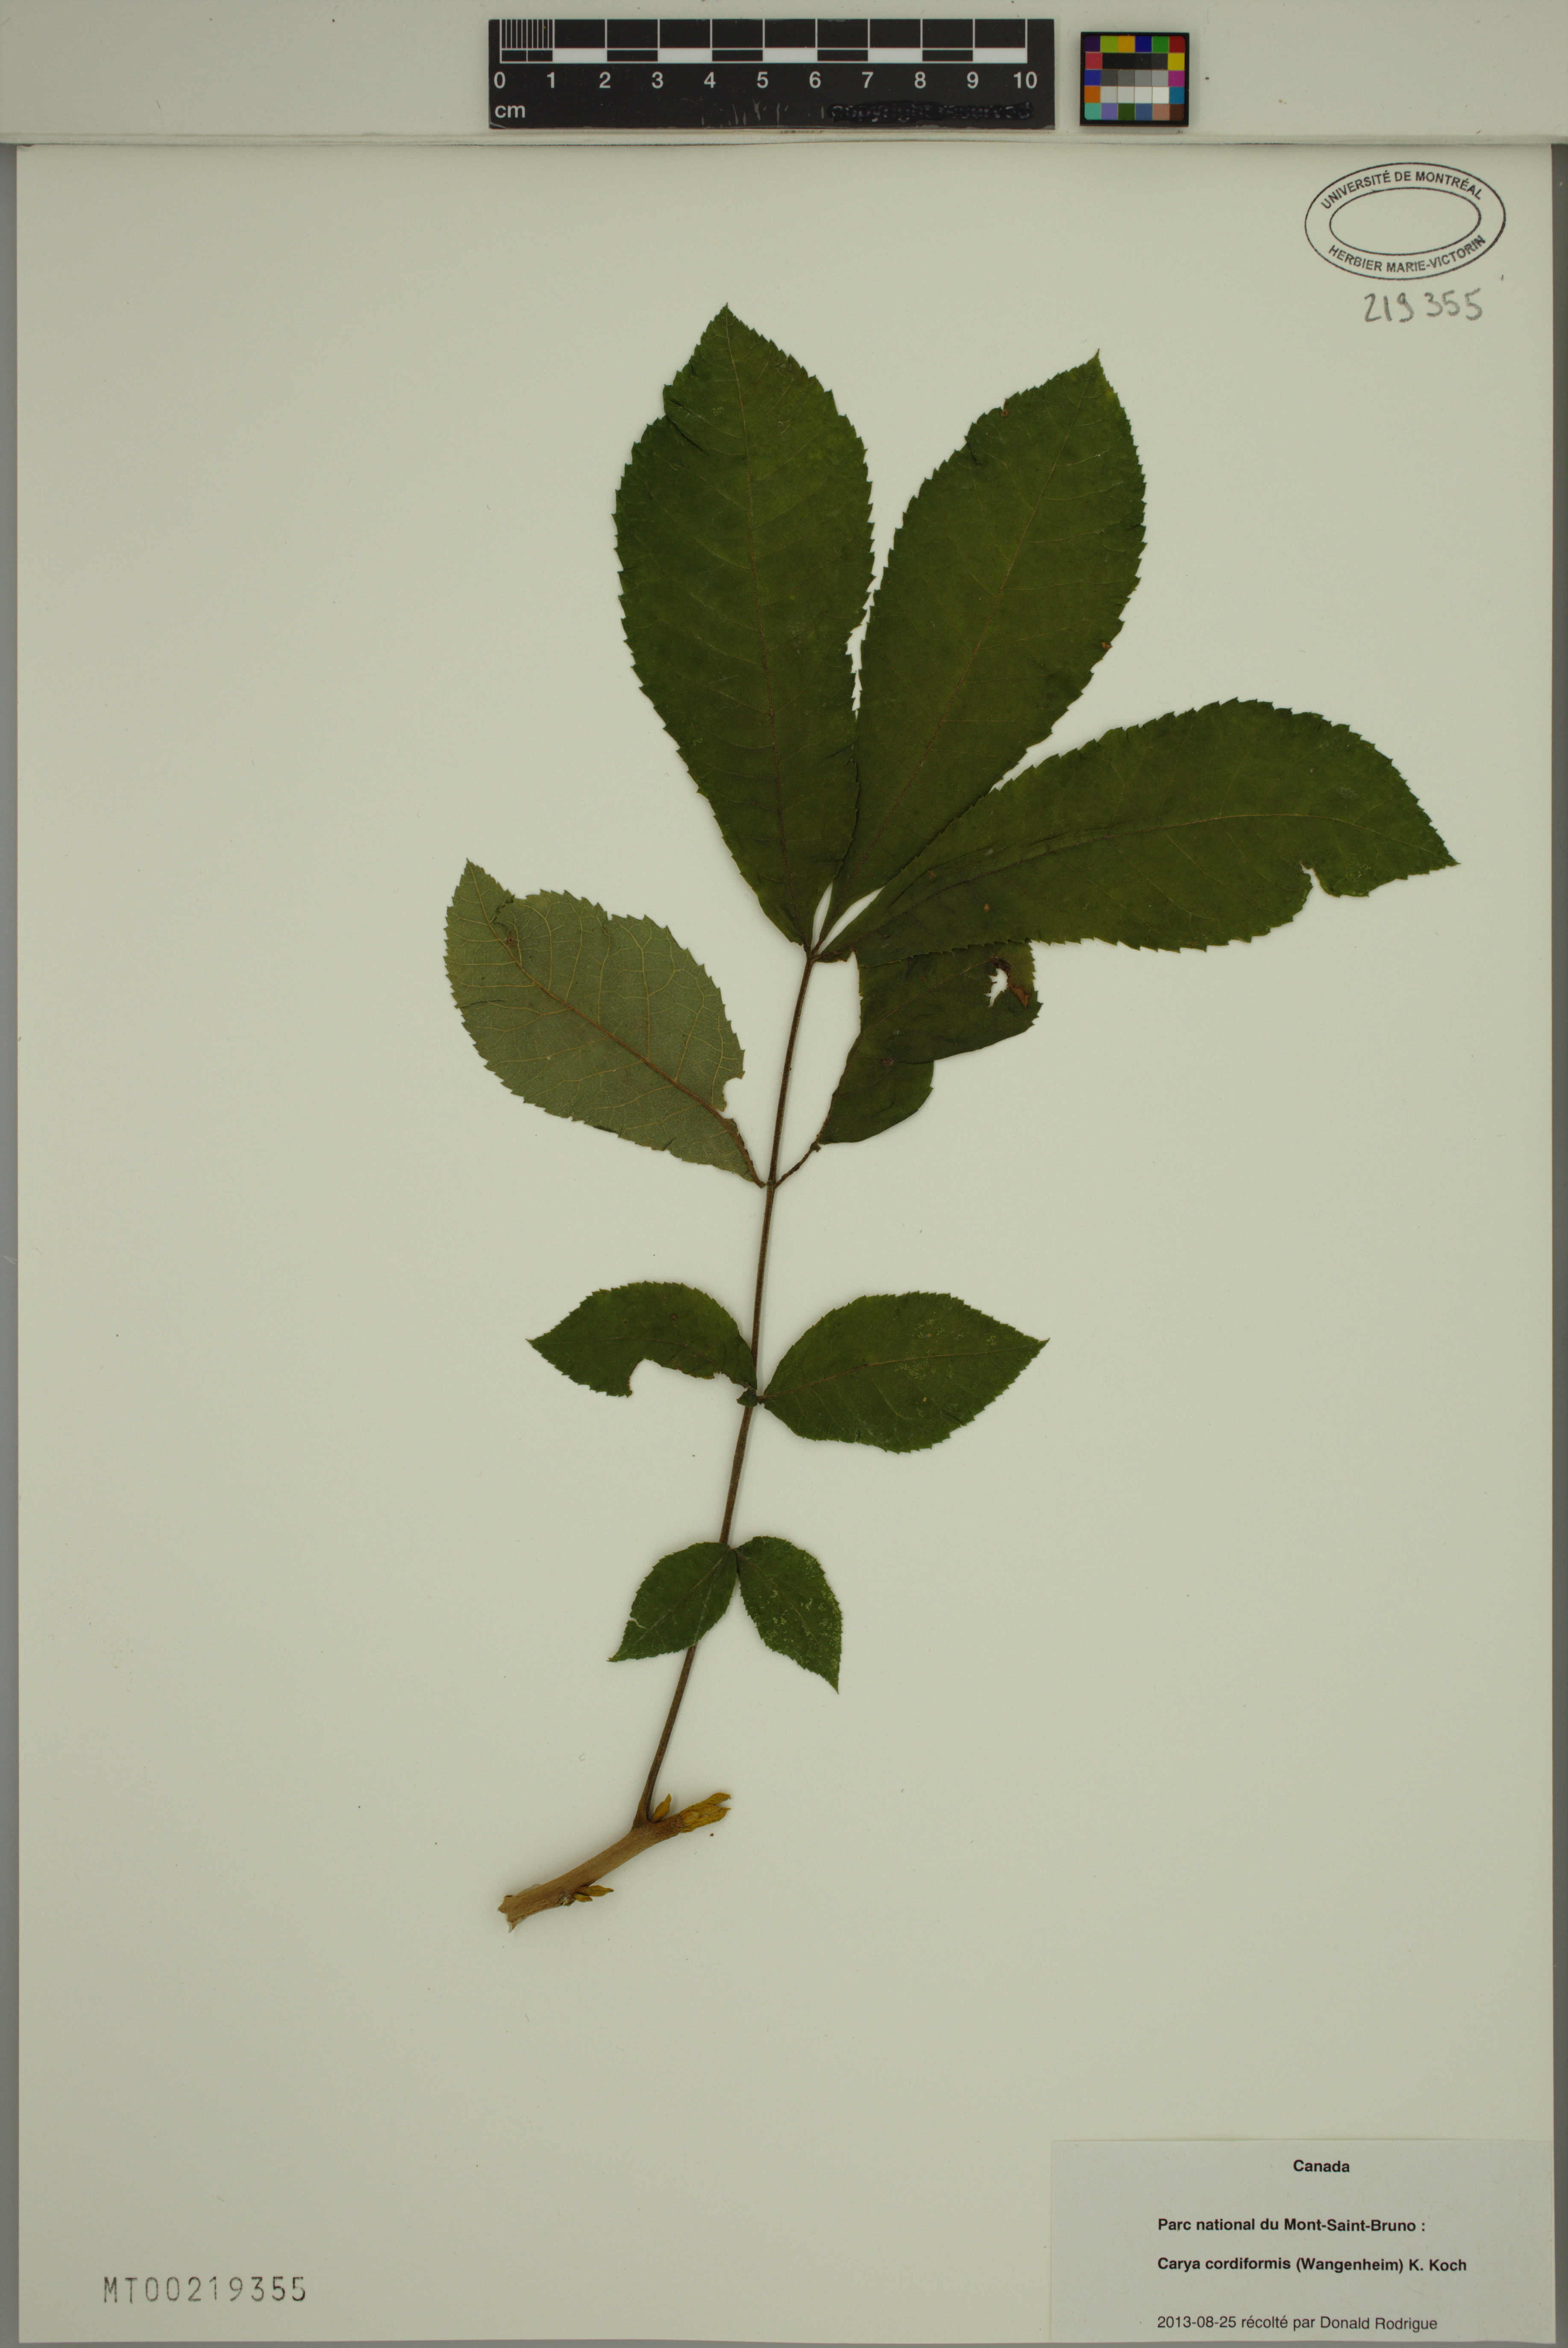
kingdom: Plantae
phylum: Tracheophyta
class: Magnoliopsida
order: Fagales
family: Juglandaceae
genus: Carya
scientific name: Carya cordiformis
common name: Bitternut hickory
